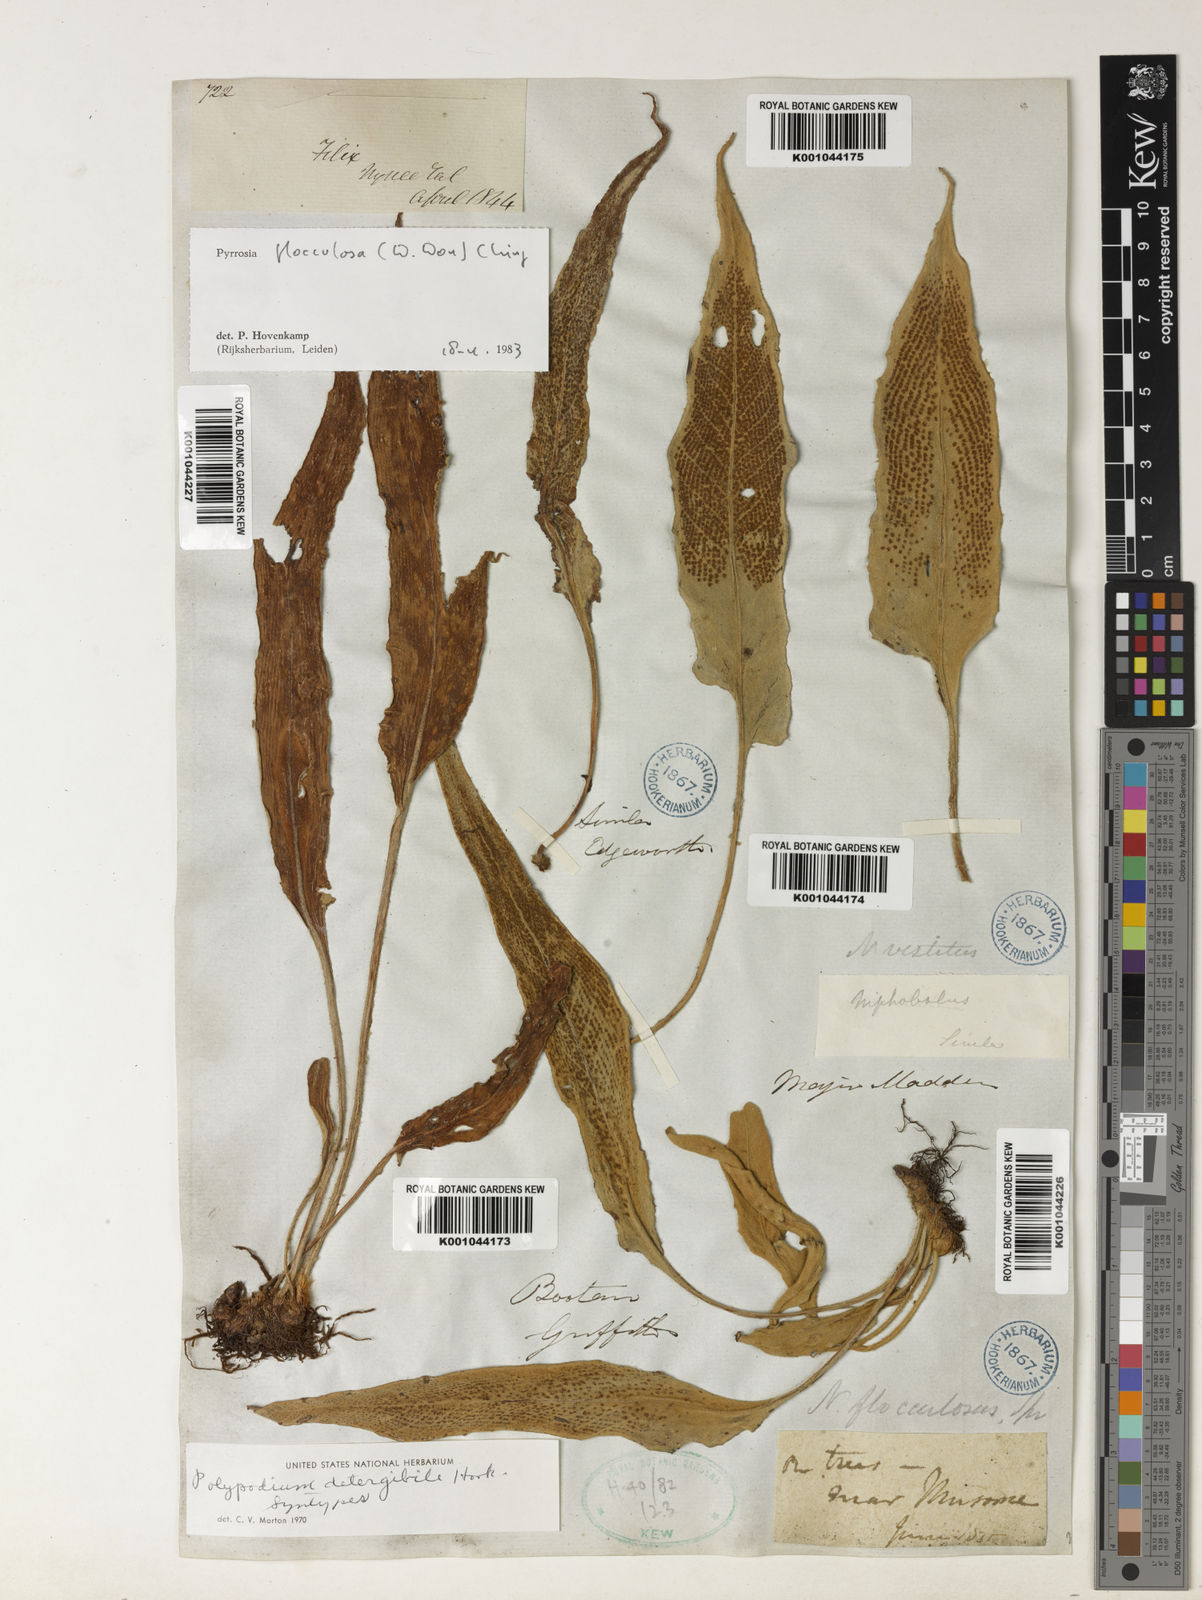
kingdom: Plantae
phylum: Tracheophyta
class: Polypodiopsida
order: Polypodiales
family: Polypodiaceae
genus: Pyrrosia
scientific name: Pyrrosia flocculosa
